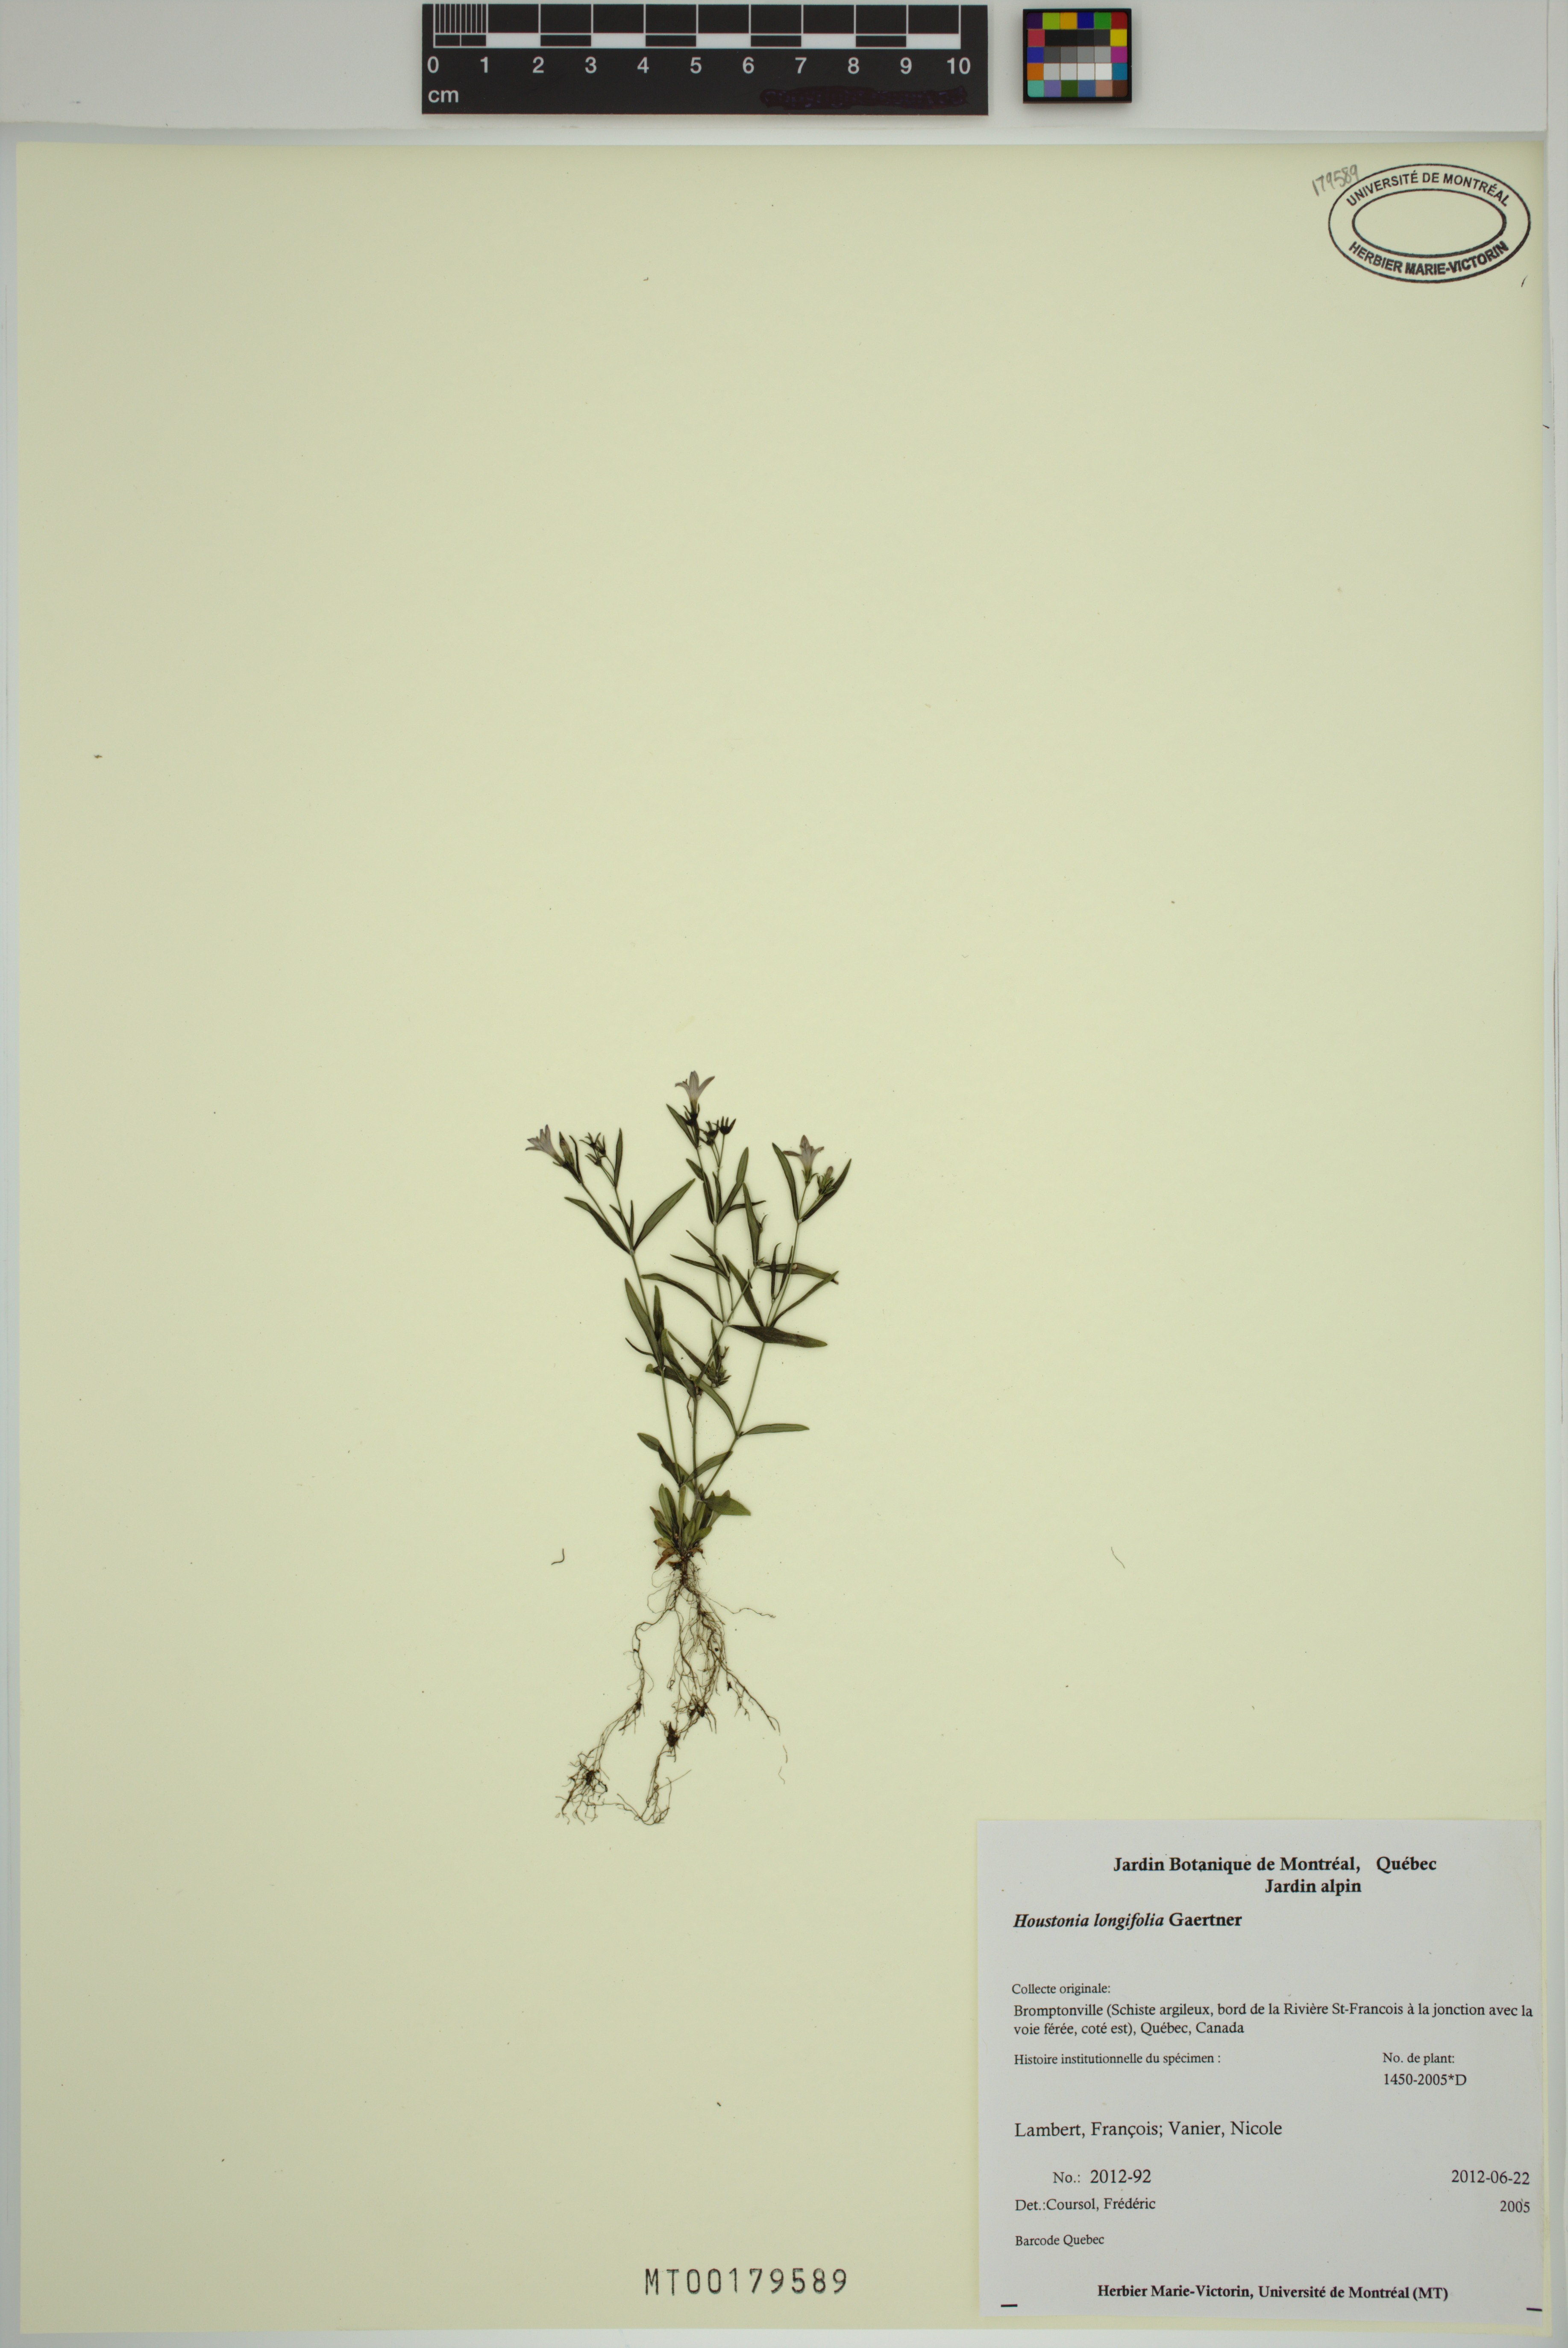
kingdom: Plantae
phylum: Tracheophyta
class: Magnoliopsida
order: Gentianales
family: Rubiaceae
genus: Houstonia
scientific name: Houstonia longifolia
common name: Long-leaved bluets
